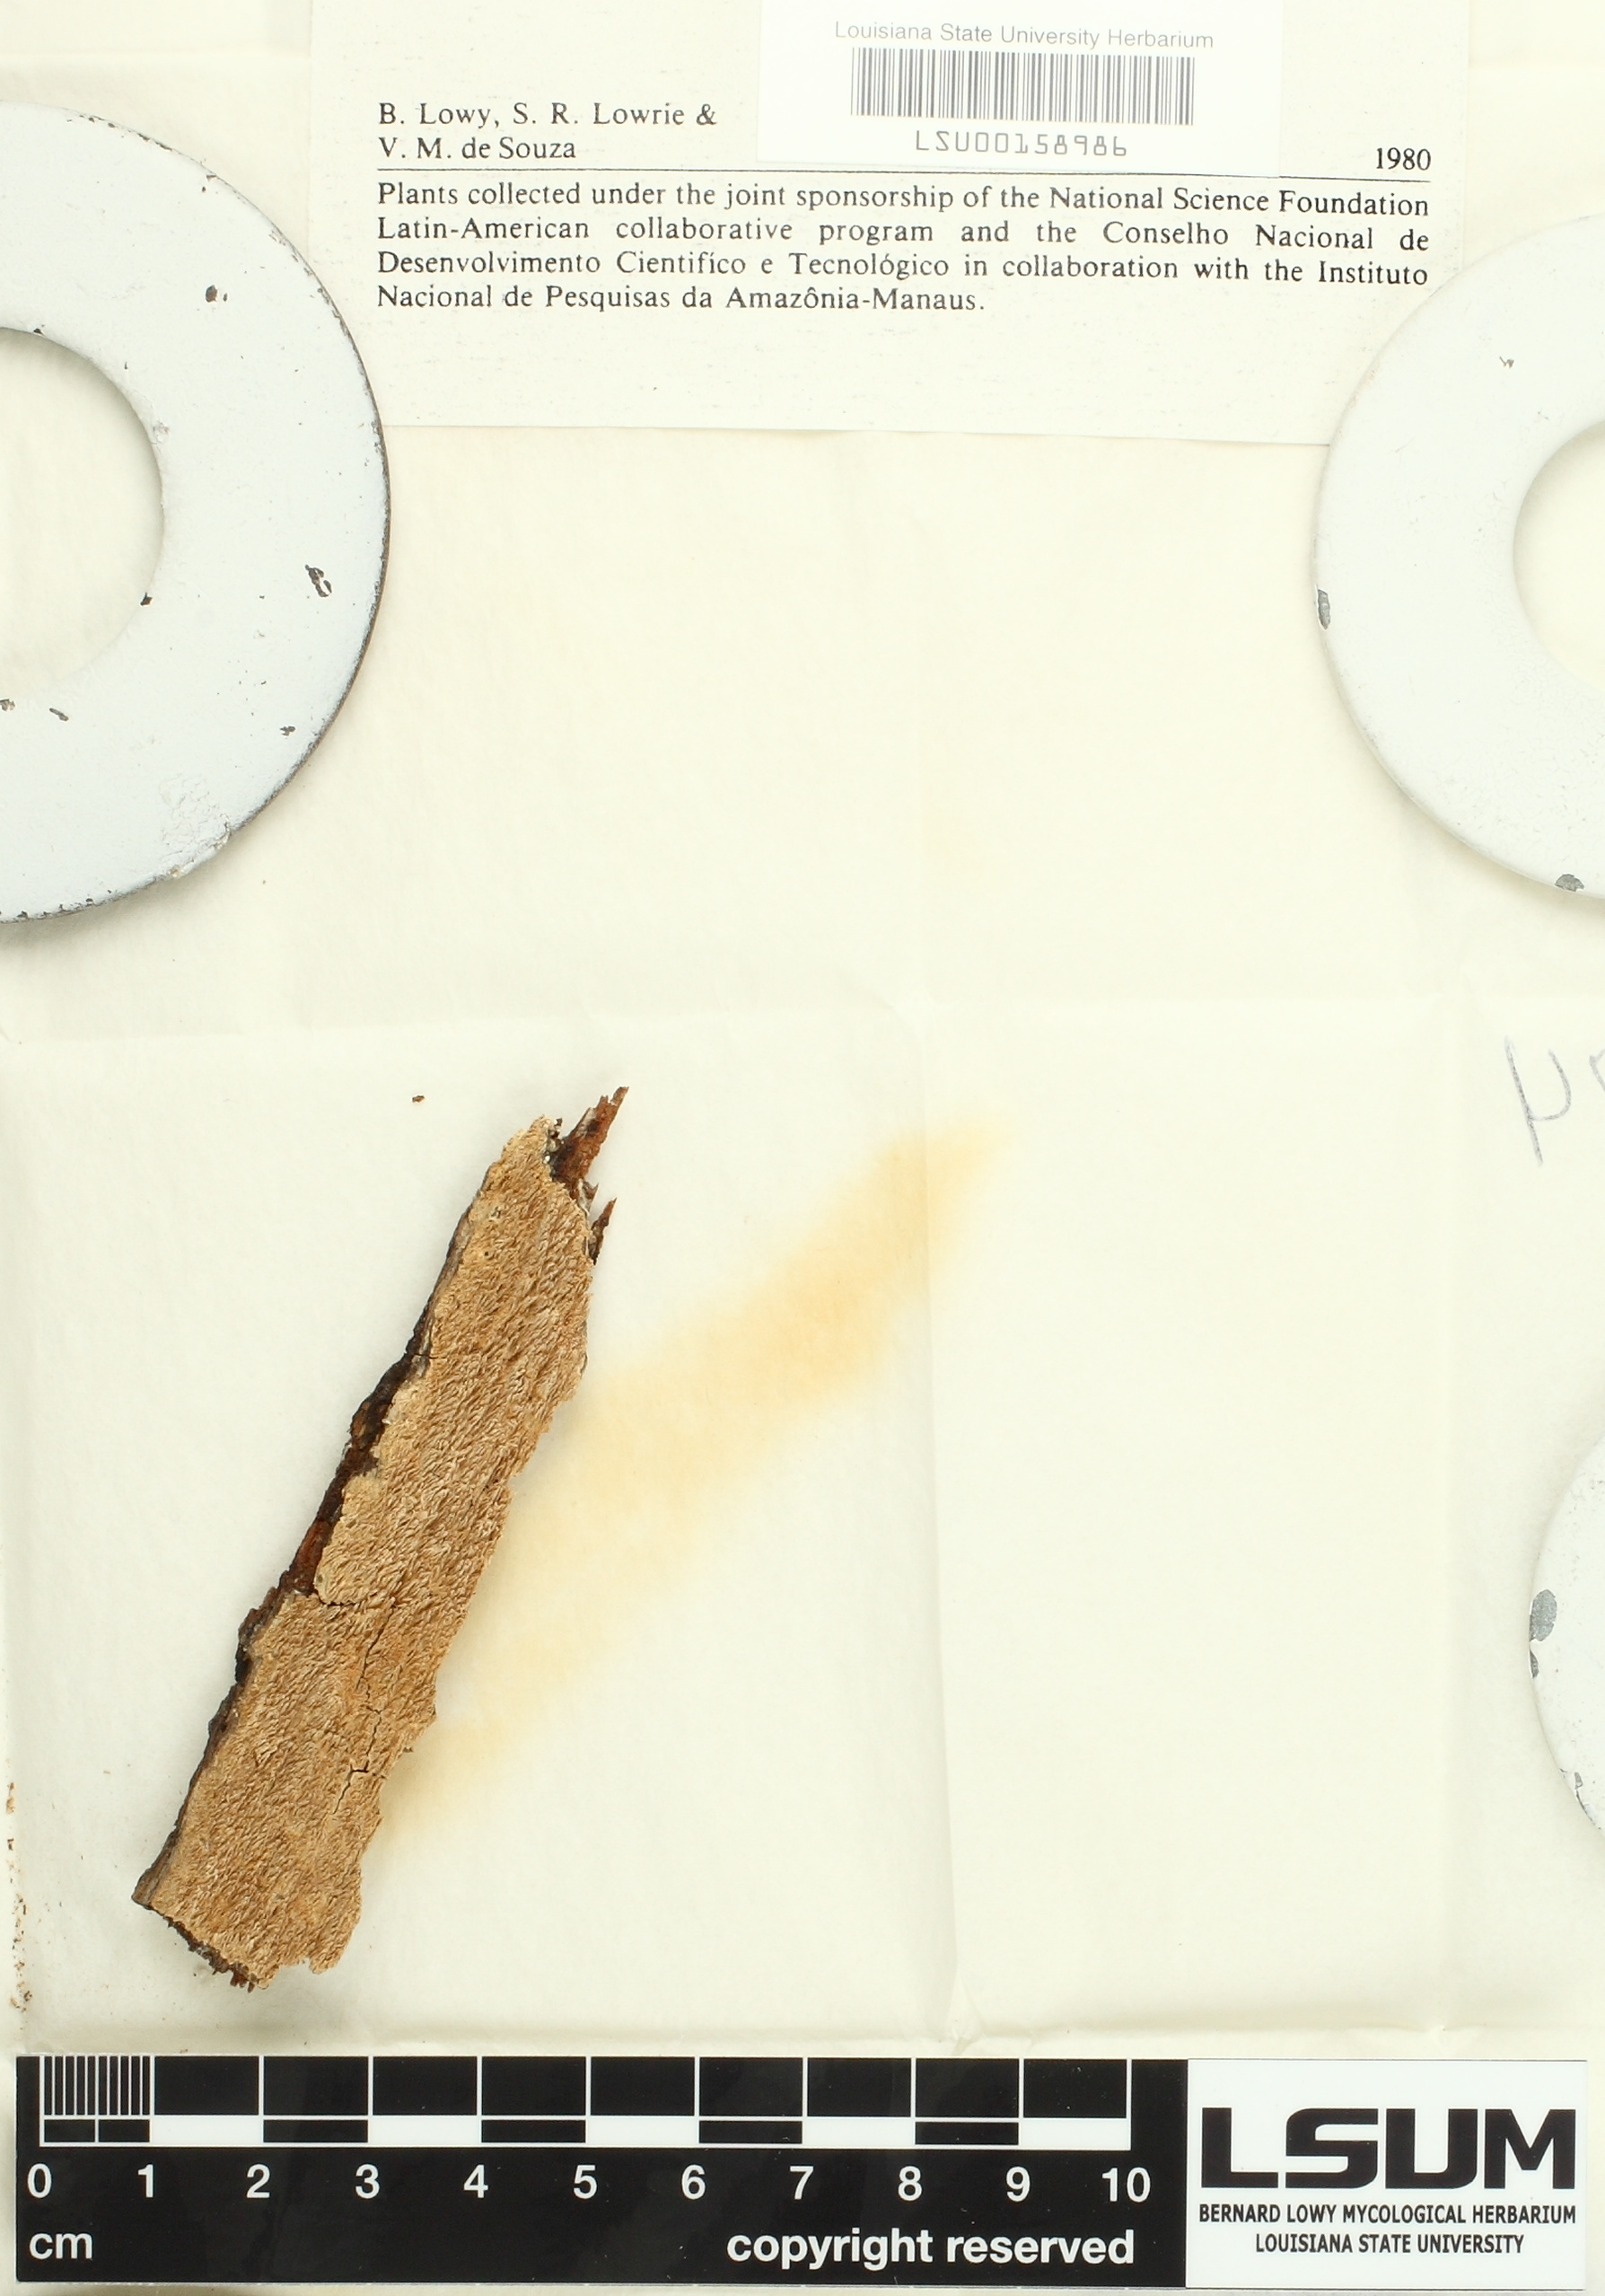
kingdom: Fungi
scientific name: Fungi
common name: Fungi
